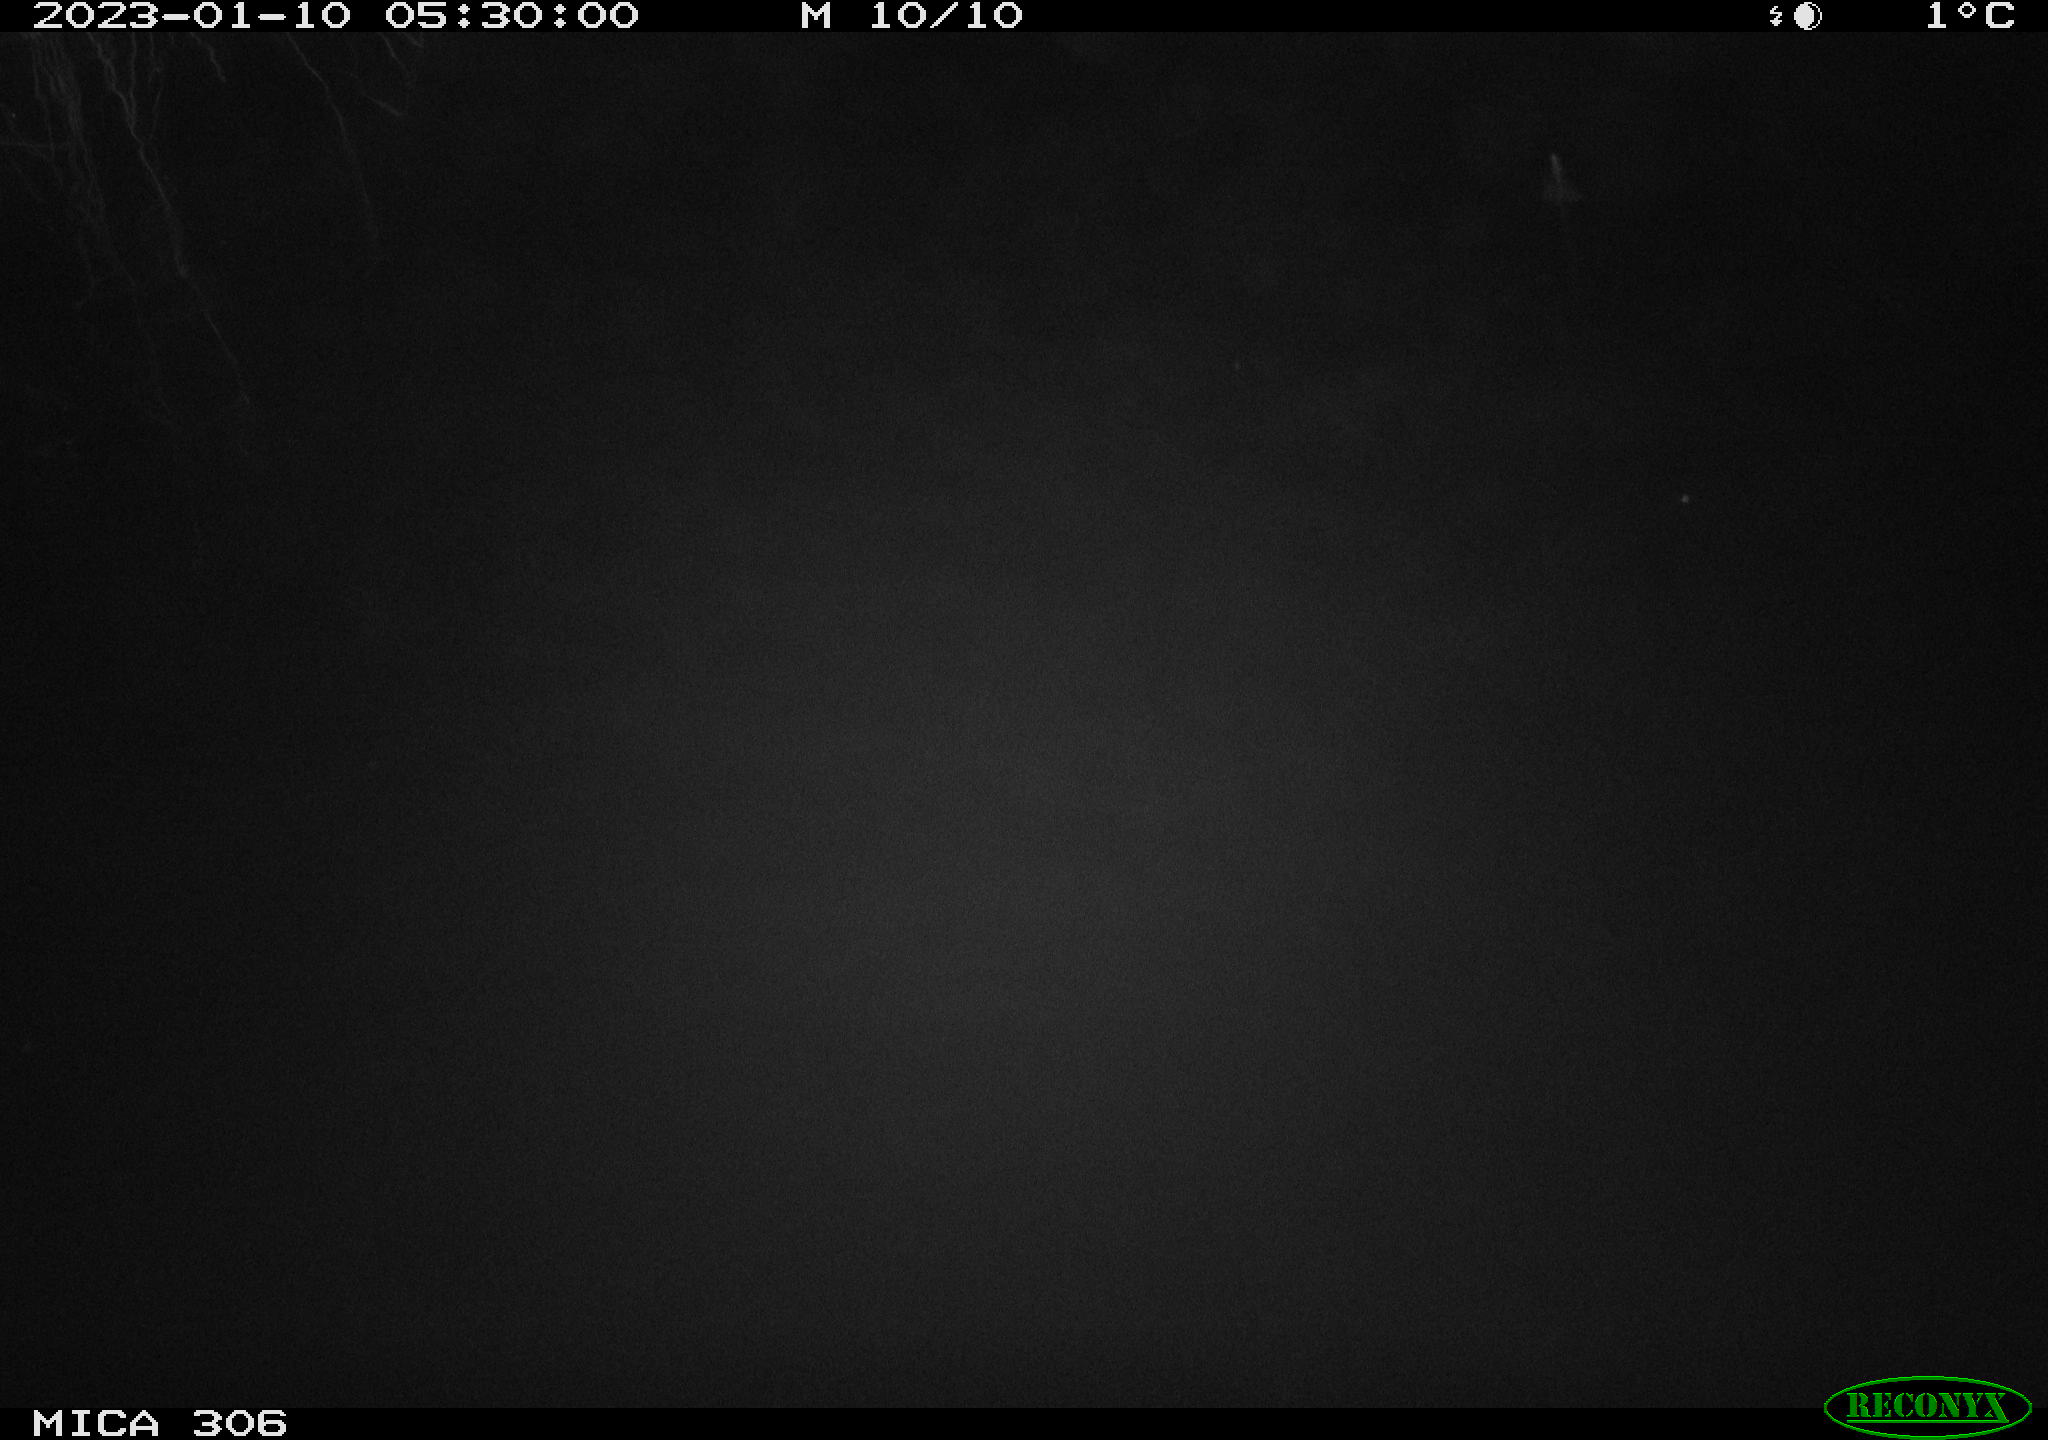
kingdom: Animalia
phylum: Chordata
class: Mammalia
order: Rodentia
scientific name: Rodentia
